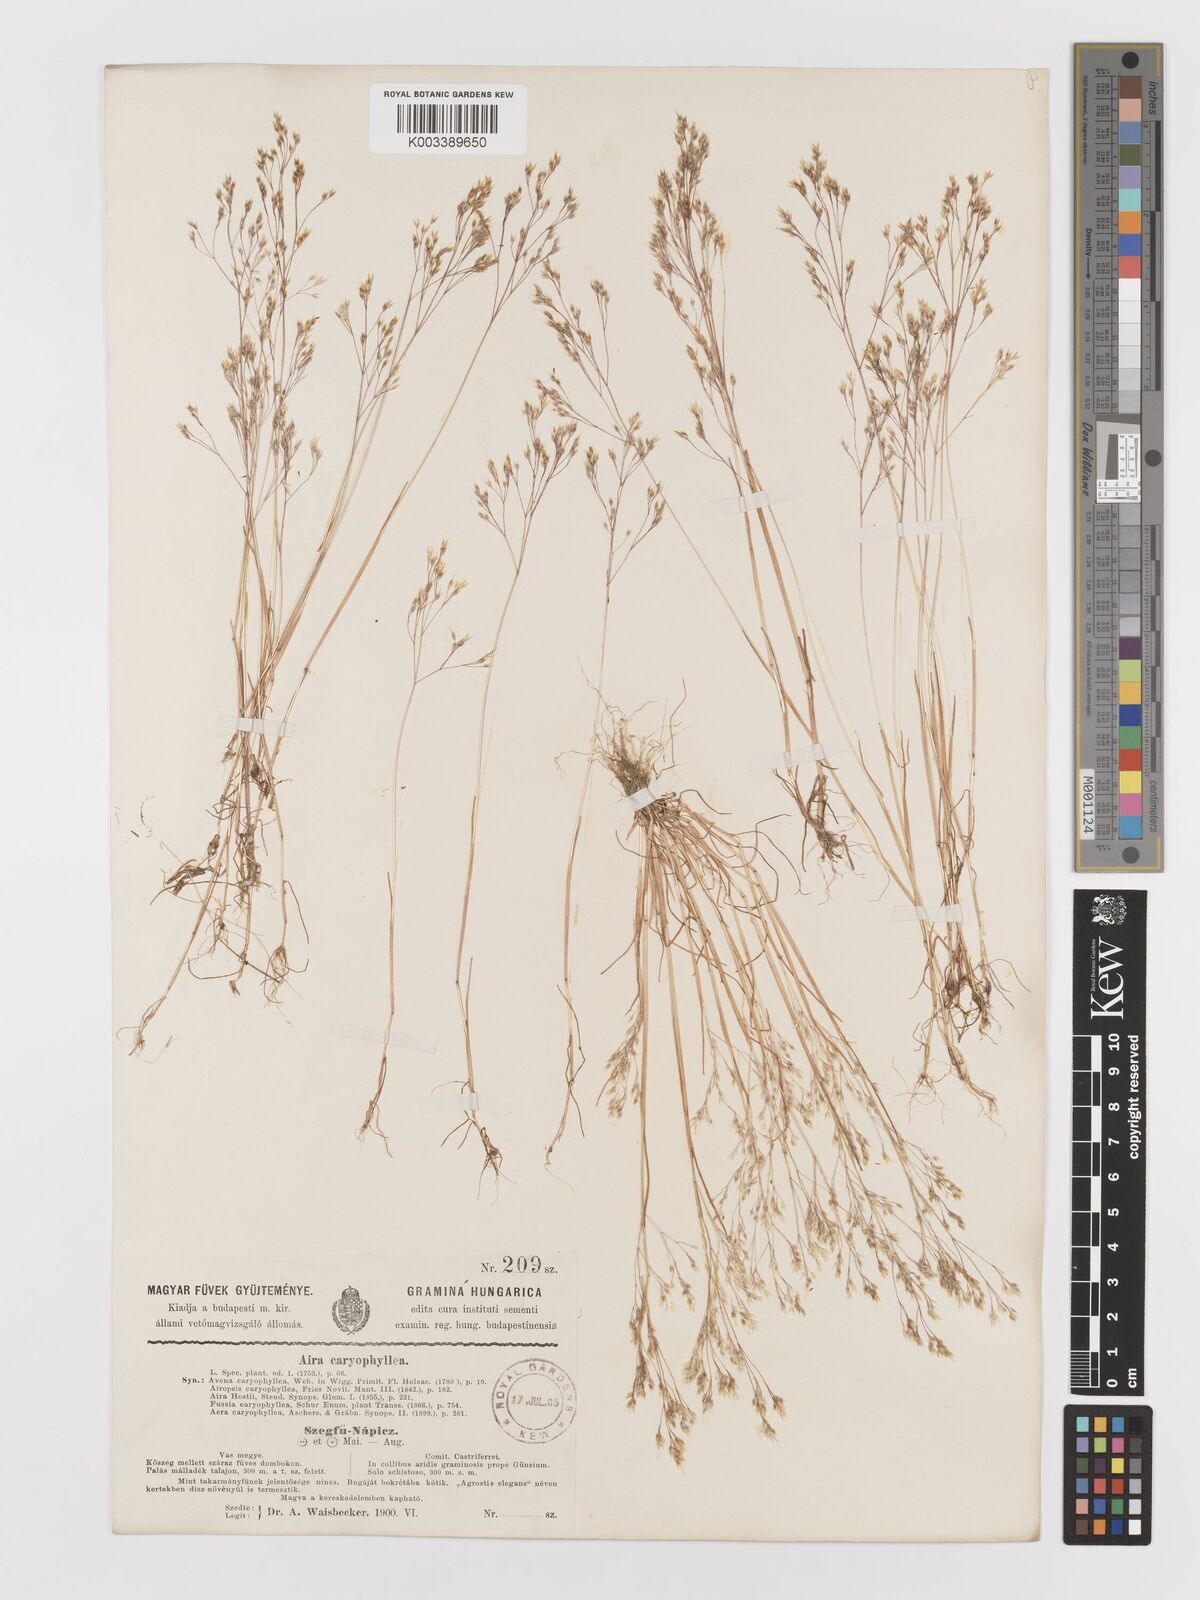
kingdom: Plantae
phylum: Tracheophyta
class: Liliopsida
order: Poales
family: Poaceae
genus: Aira
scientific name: Aira caryophyllea
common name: Silver hairgrass
